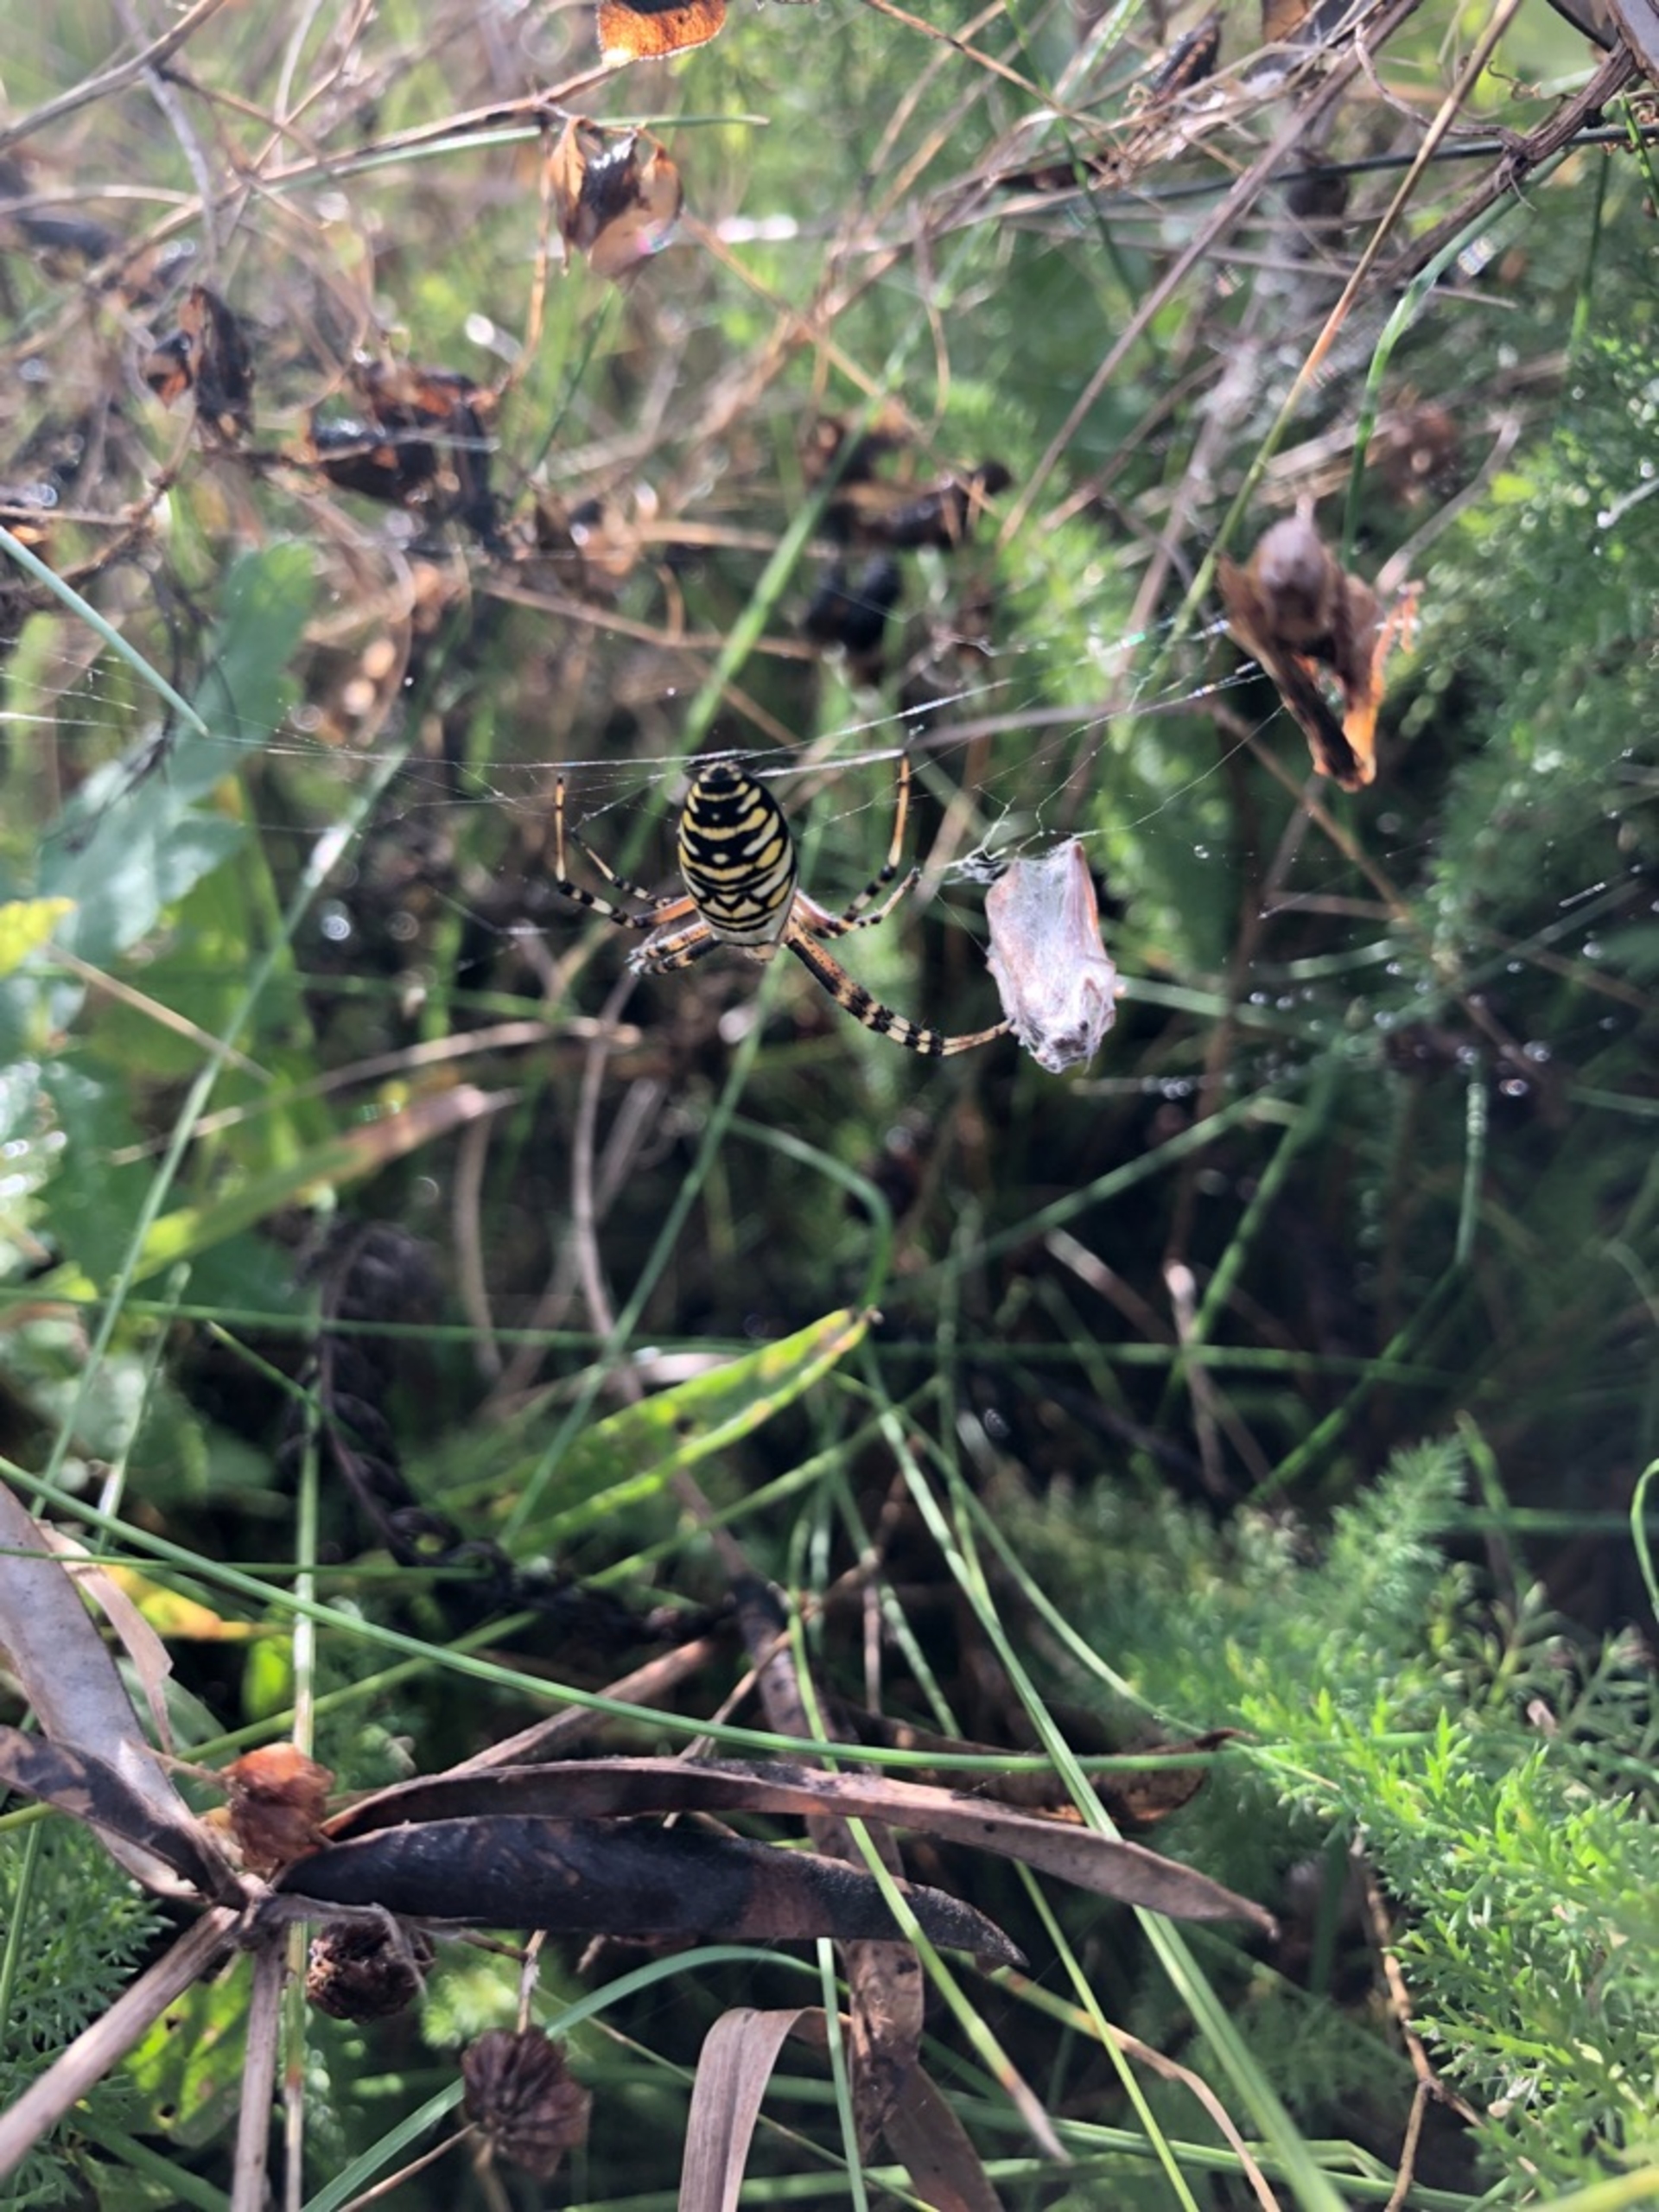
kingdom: Animalia
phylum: Arthropoda
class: Arachnida
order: Araneae
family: Araneidae
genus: Argiope
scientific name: Argiope bruennichi
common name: Hvepseedderkop
